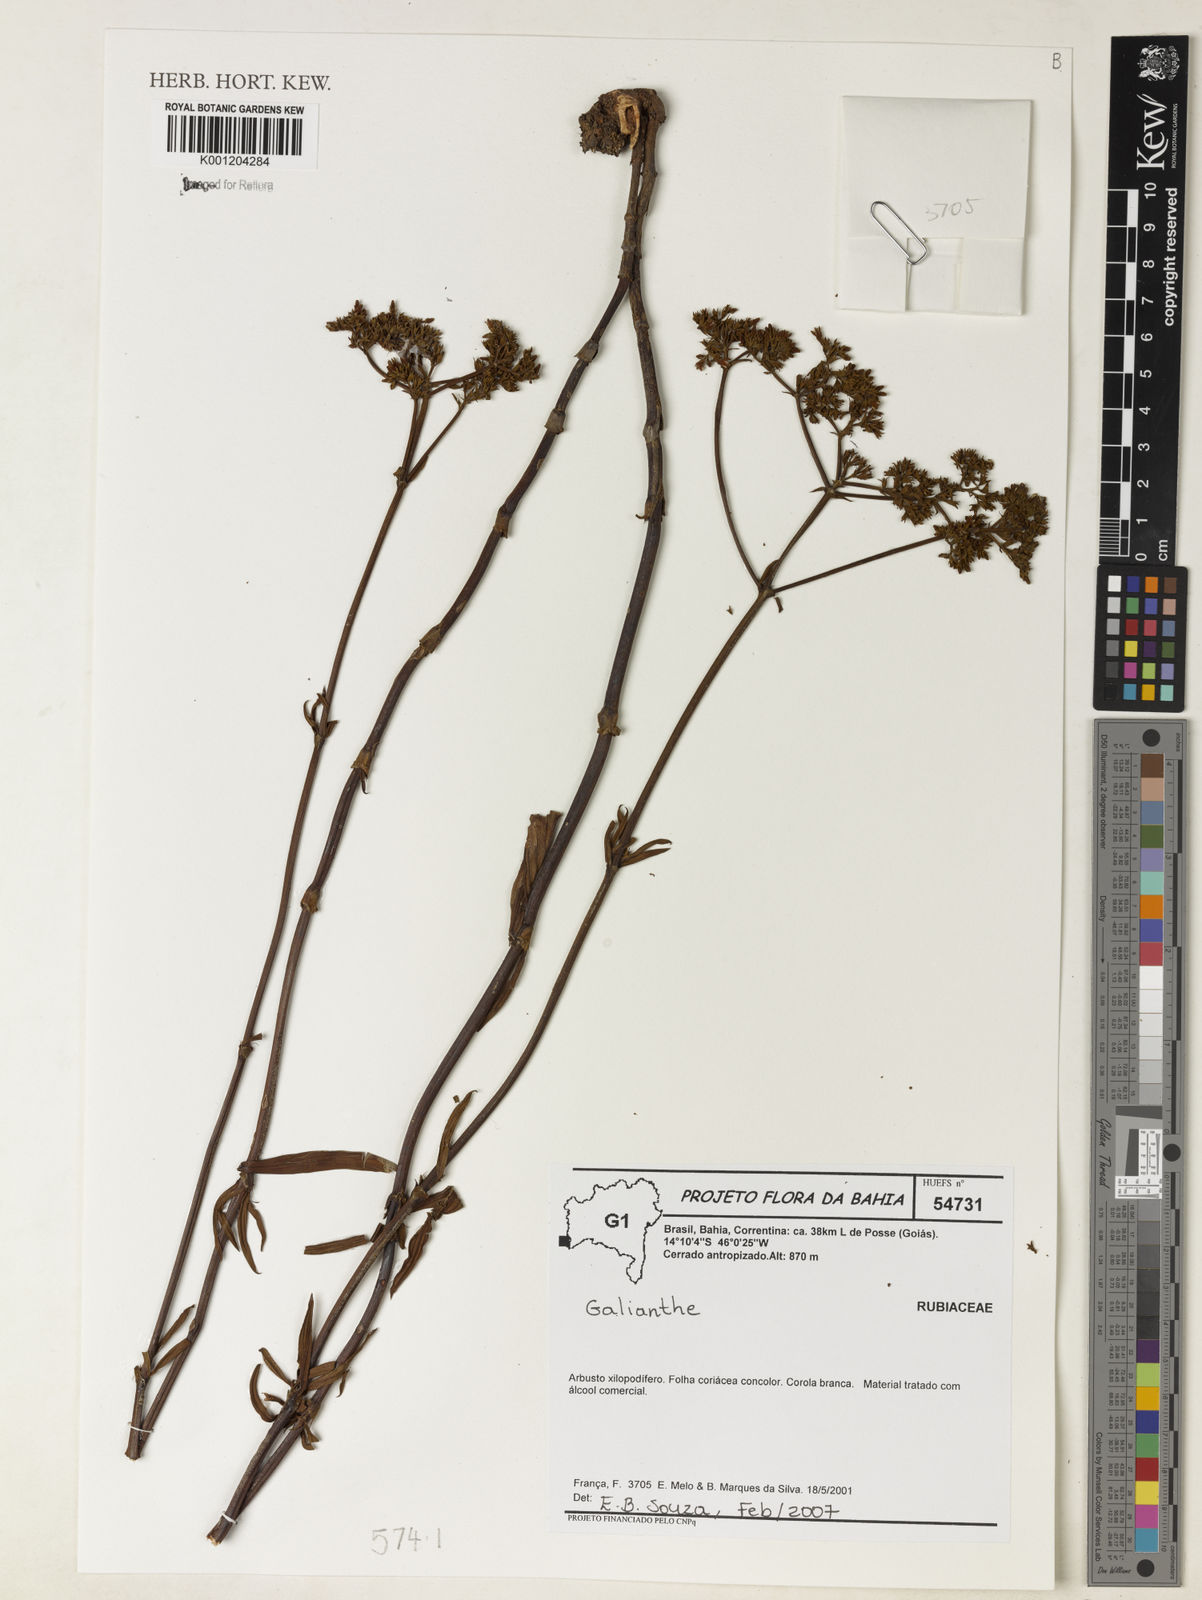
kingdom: Plantae
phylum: Tracheophyta
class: Magnoliopsida
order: Gentianales
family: Rubiaceae
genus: Galianthe
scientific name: Galianthe
